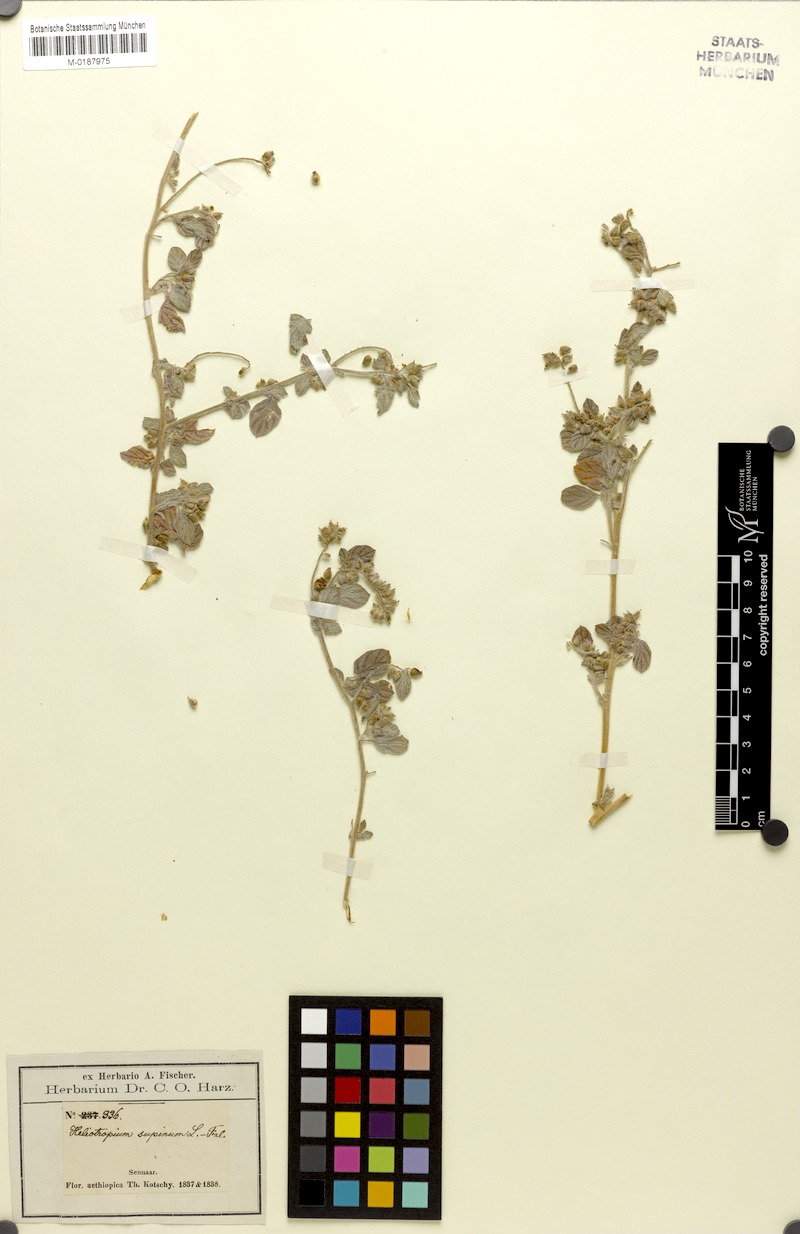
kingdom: Plantae
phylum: Tracheophyta
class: Magnoliopsida
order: Boraginales
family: Heliotropiaceae
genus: Heliotropium
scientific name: Heliotropium supinum
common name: Dwarf heliotrope
